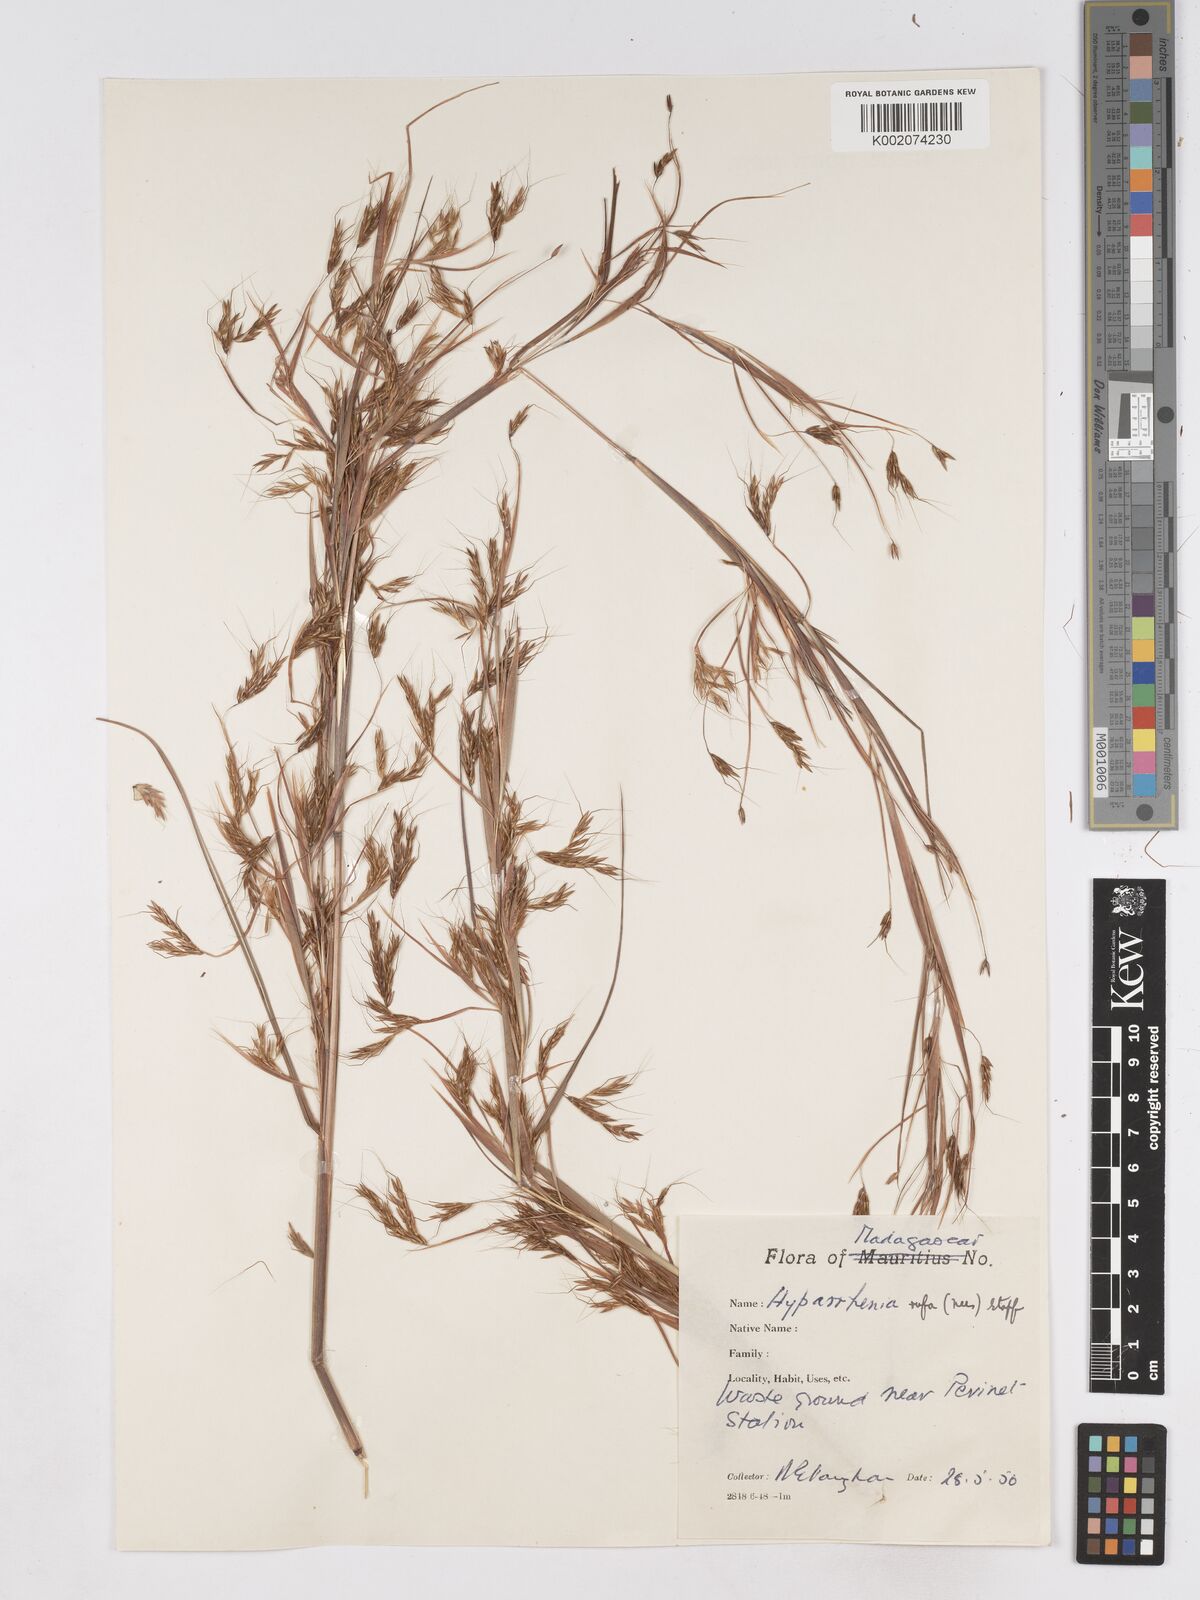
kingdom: Plantae
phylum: Tracheophyta
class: Liliopsida
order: Poales
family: Poaceae
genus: Hyparrhenia
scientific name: Hyparrhenia rufa
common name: Jaraguagrass
